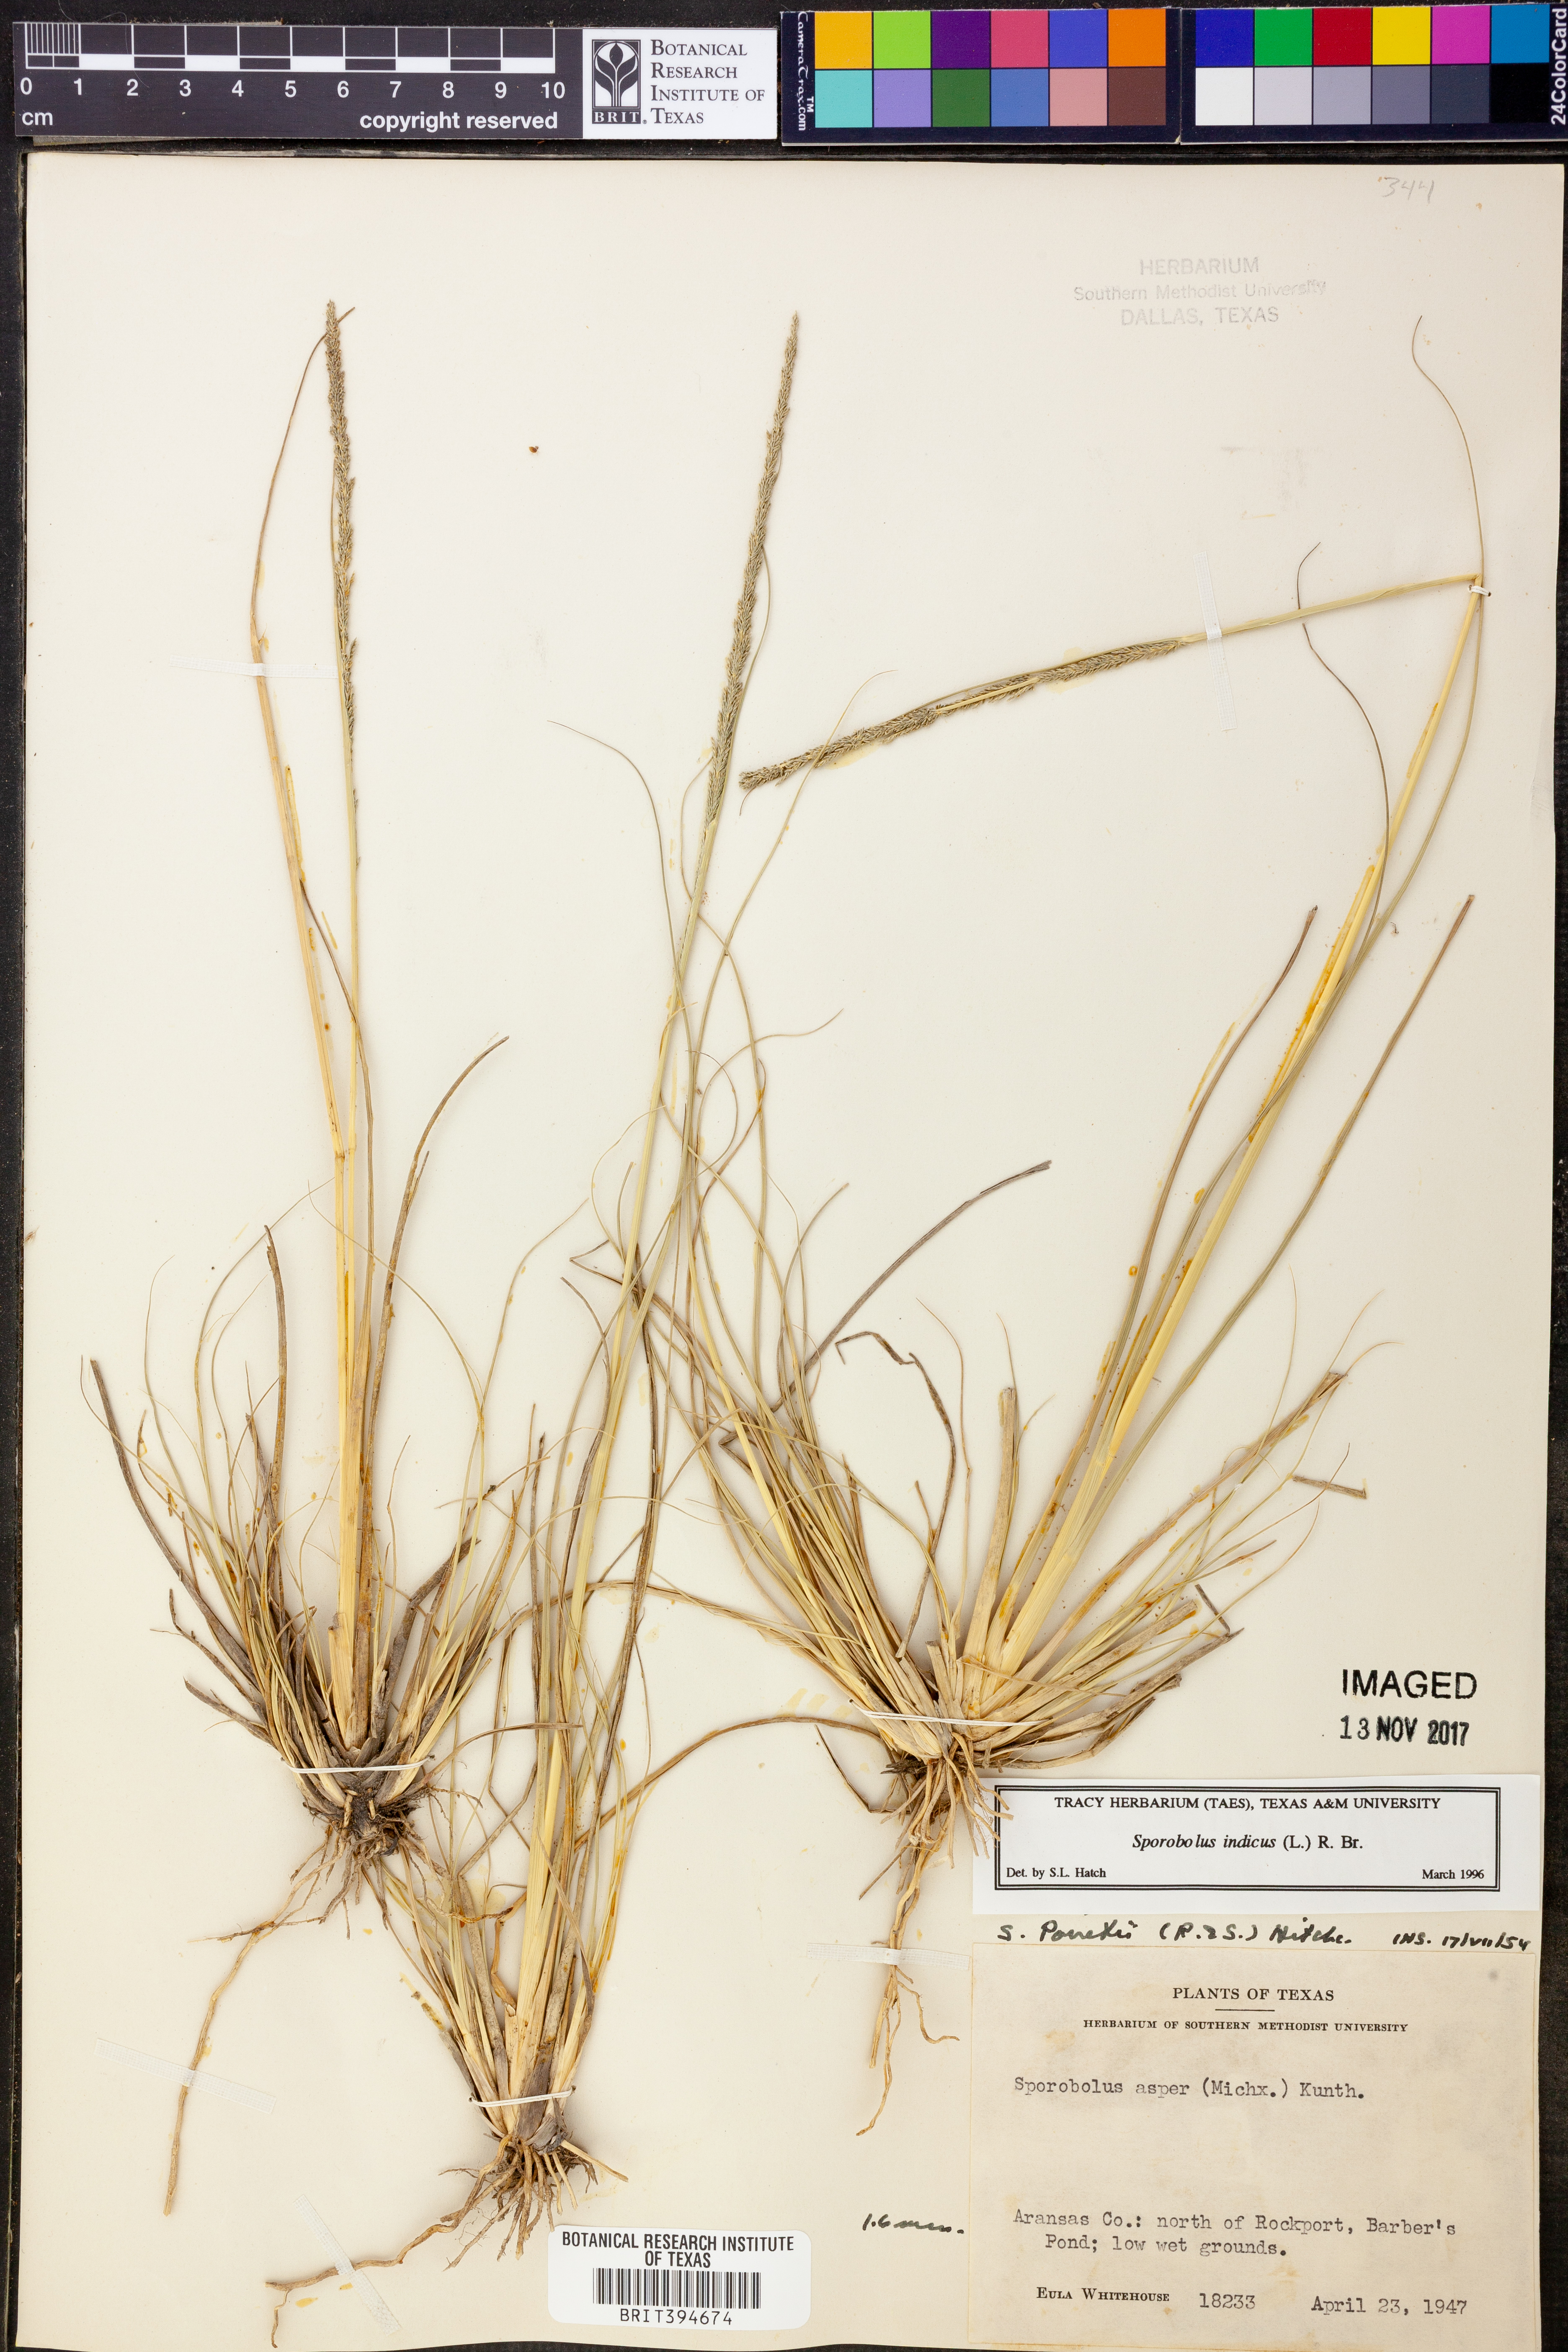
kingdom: Plantae
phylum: Tracheophyta
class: Liliopsida
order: Poales
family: Poaceae
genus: Sporobolus
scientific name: Sporobolus indicus
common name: Smut grass
